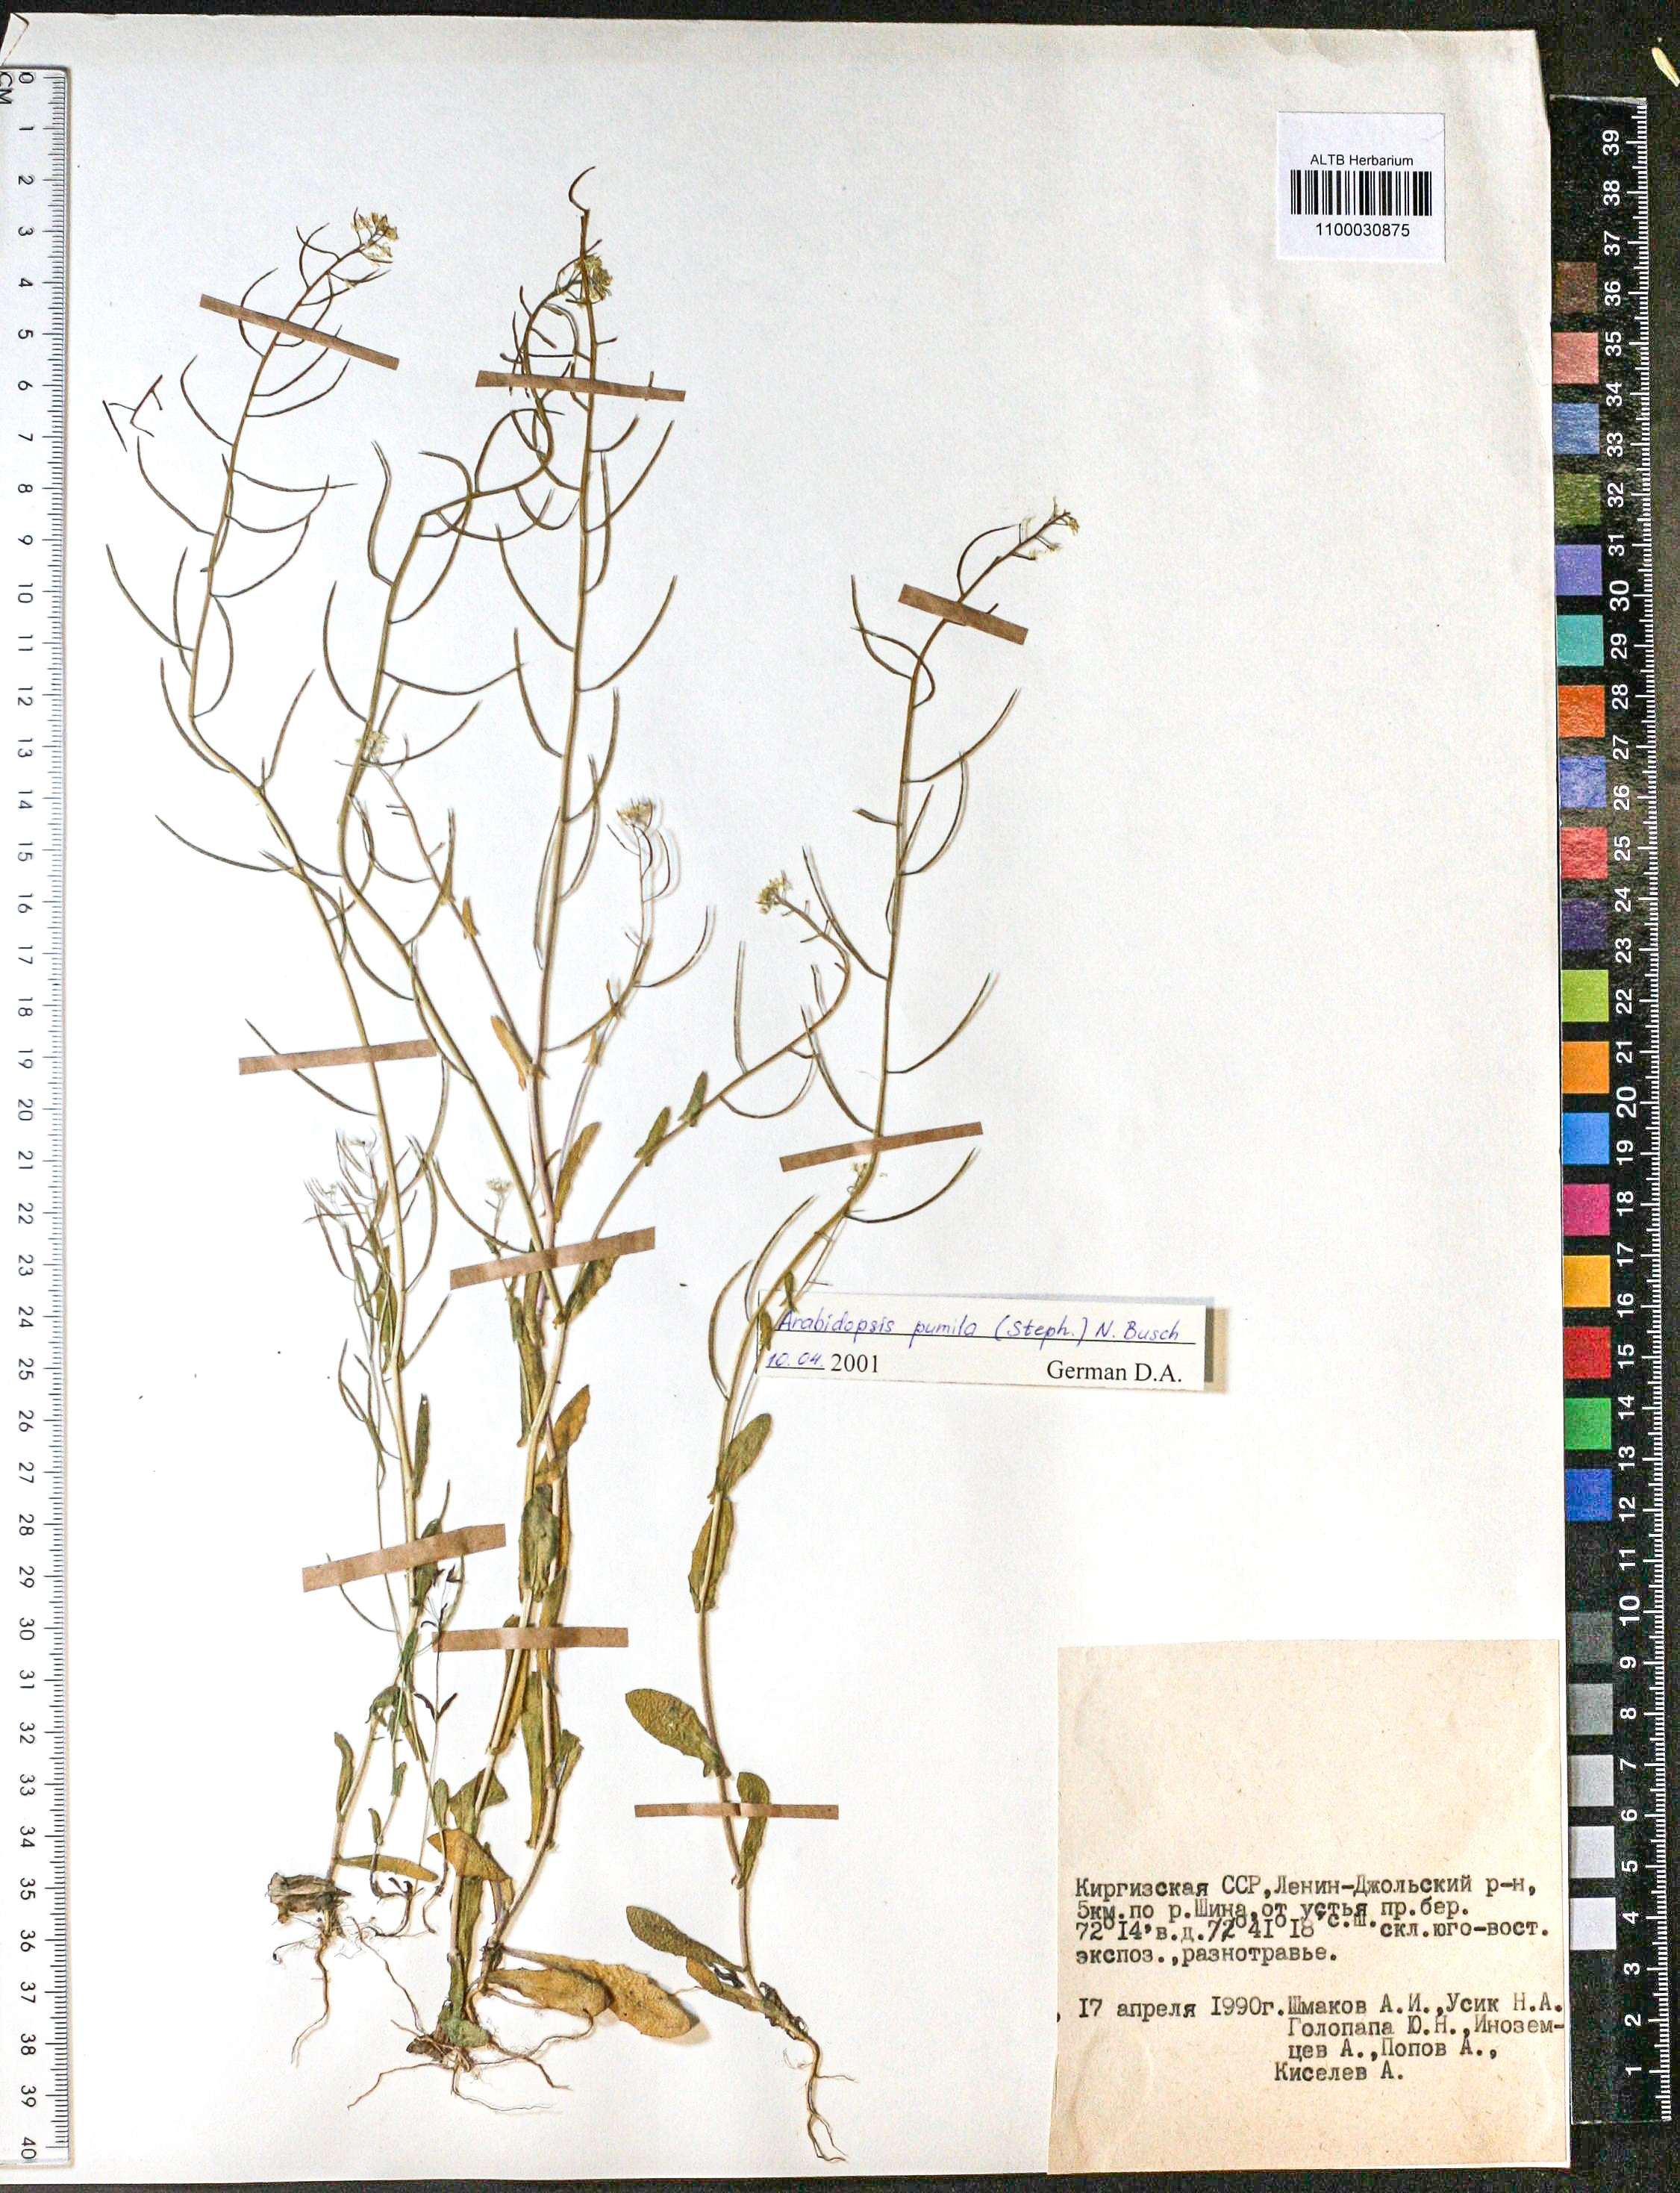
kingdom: Plantae
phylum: Tracheophyta
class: Magnoliopsida
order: Brassicales
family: Brassicaceae
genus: Sisymbrium
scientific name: Sisymbrium pumilum
